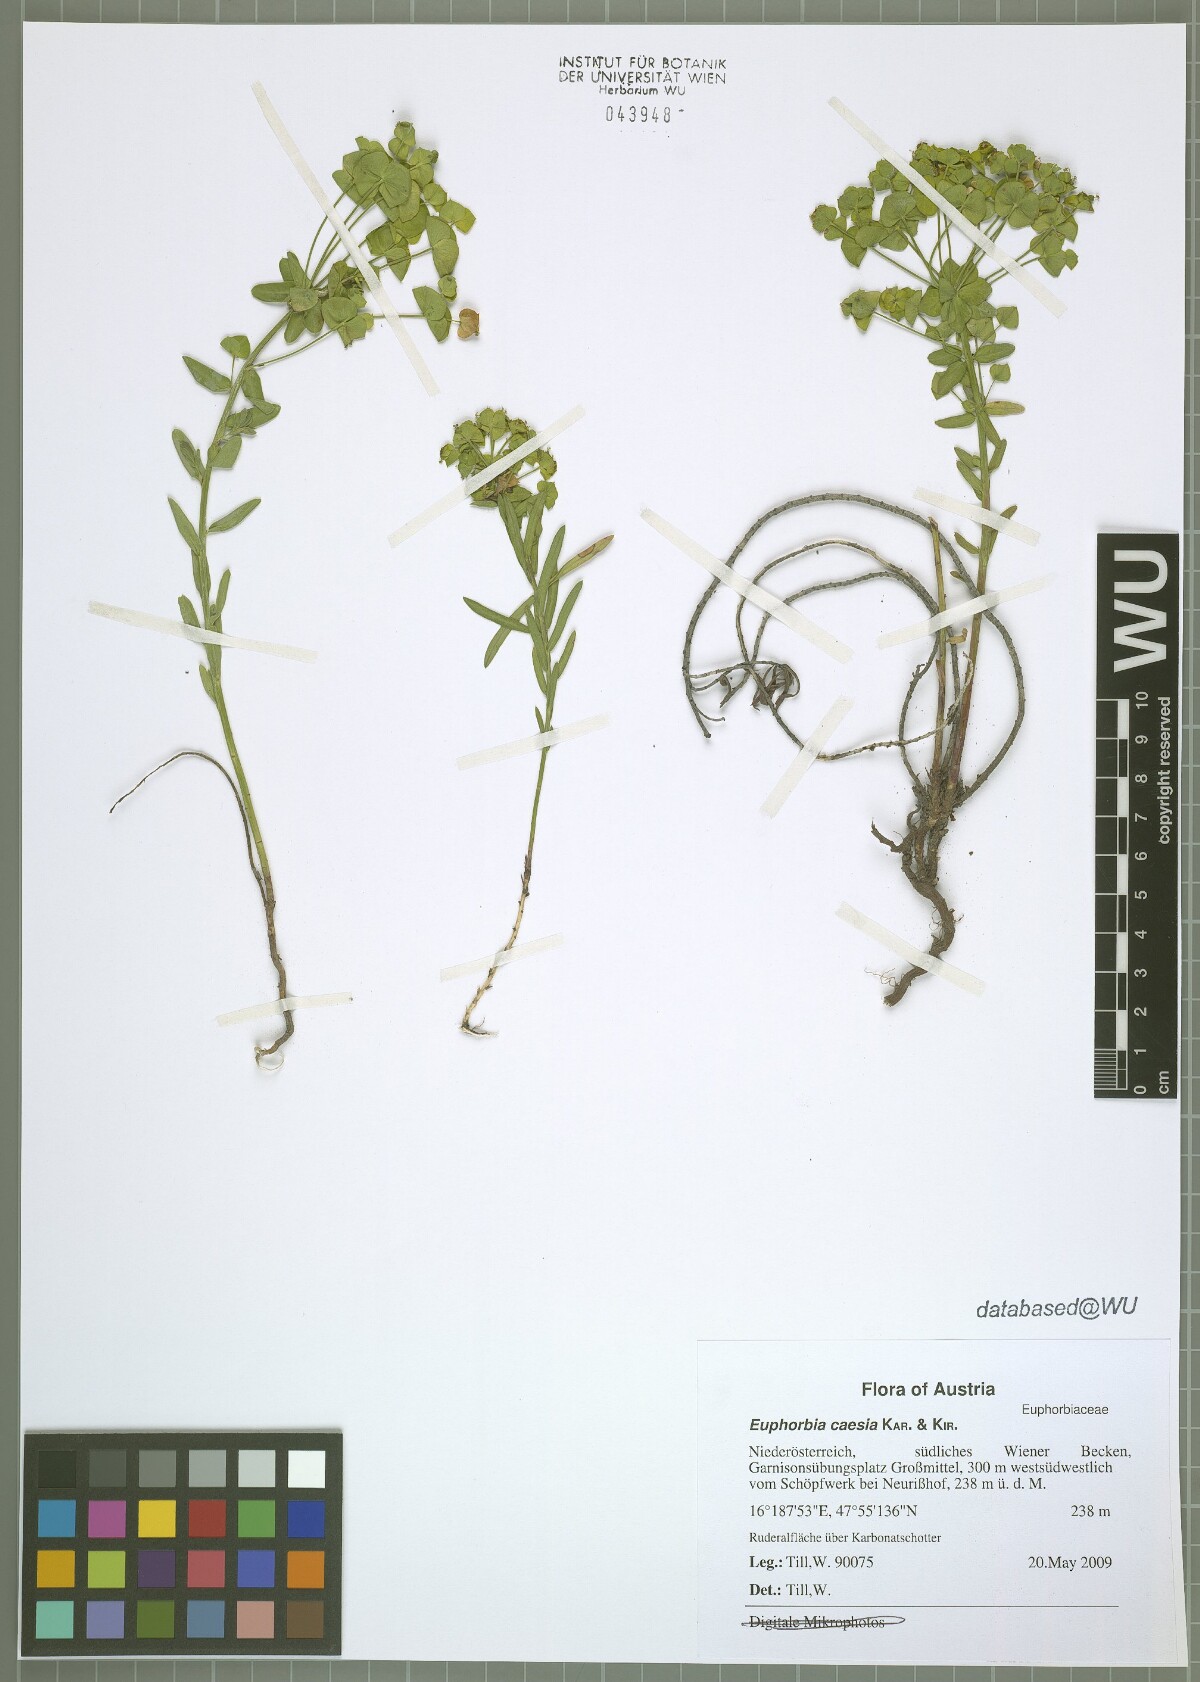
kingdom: Plantae
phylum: Tracheophyta
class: Magnoliopsida
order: Malpighiales
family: Euphorbiaceae
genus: Euphorbia
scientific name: Euphorbia caesia
